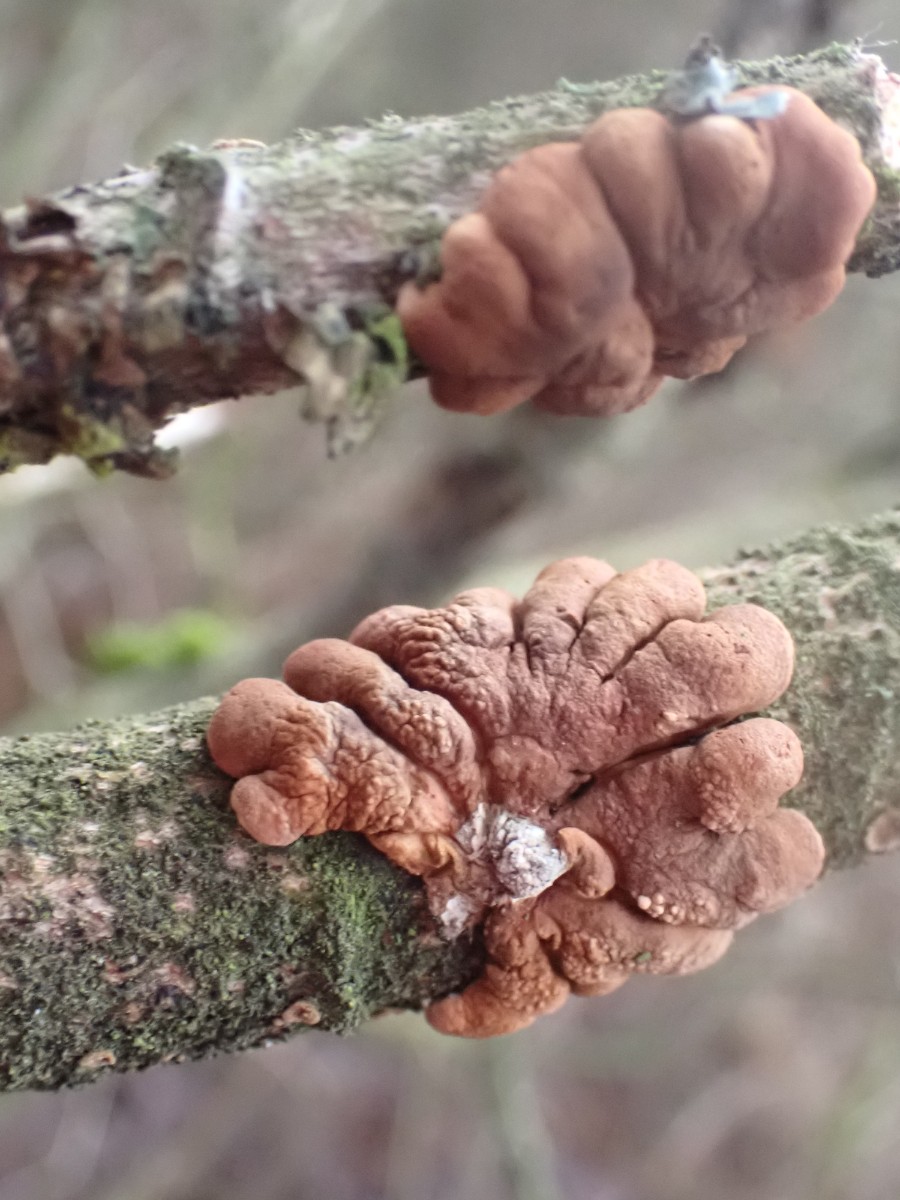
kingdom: Fungi
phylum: Ascomycota
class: Sordariomycetes
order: Hypocreales
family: Hypocreaceae
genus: Hypocreopsis
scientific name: Hypocreopsis lichenoides
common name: pilfinger
